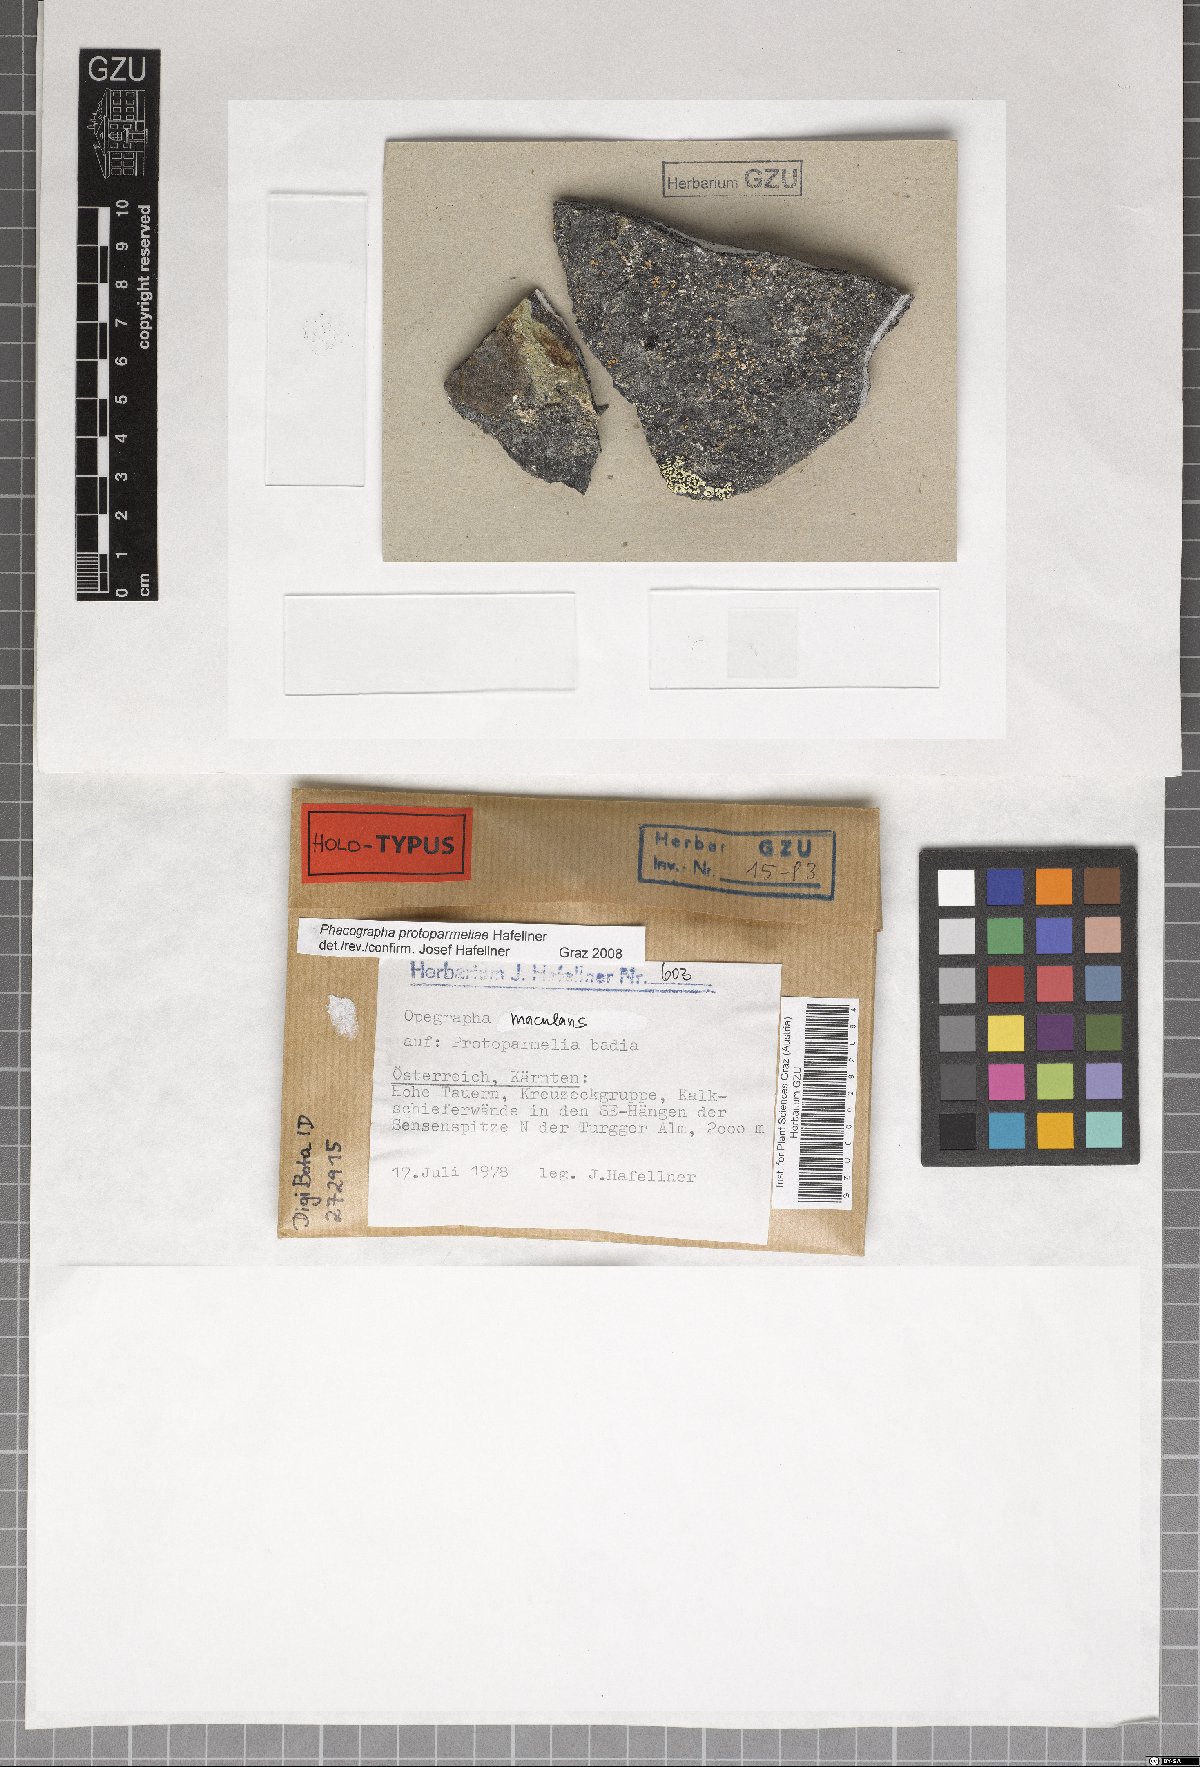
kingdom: Fungi
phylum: Ascomycota
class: Arthoniomycetes
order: Arthoniales
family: Roccellaceae
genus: Phacographa
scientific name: Phacographa protoparmeliae
